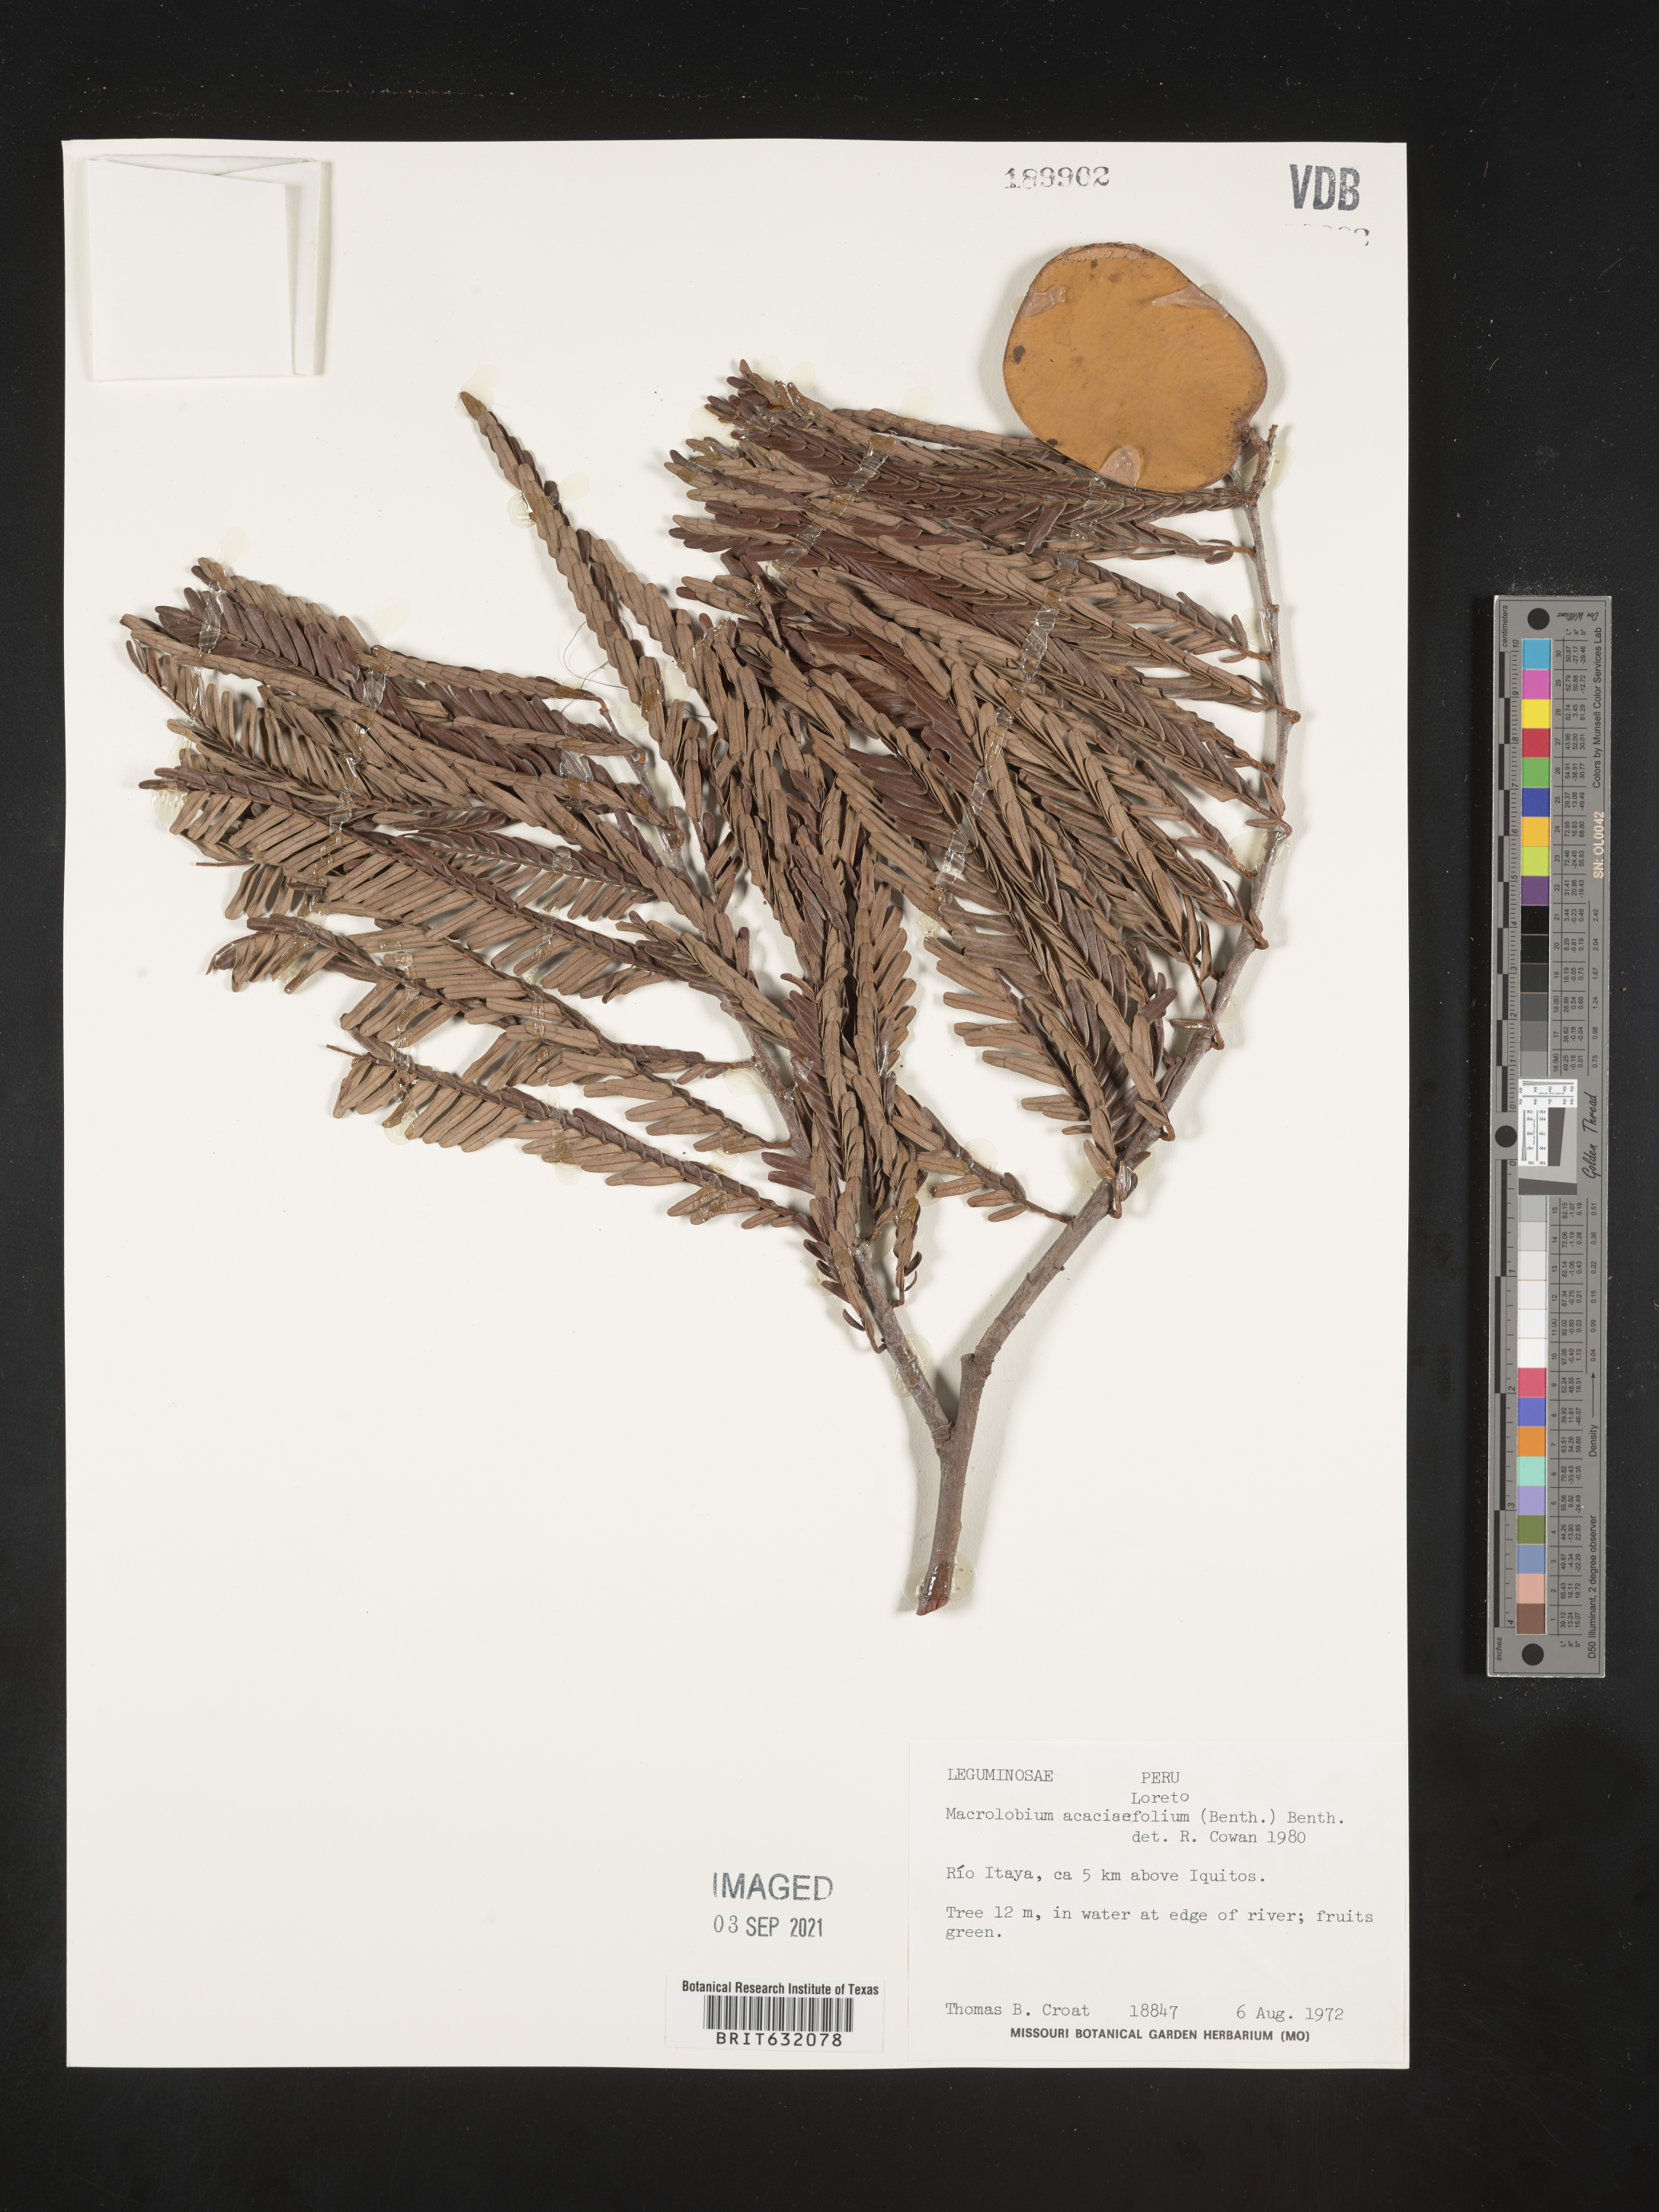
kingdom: Plantae
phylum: Tracheophyta
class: Magnoliopsida
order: Fabales
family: Fabaceae
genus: Macrolobium
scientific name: Macrolobium
